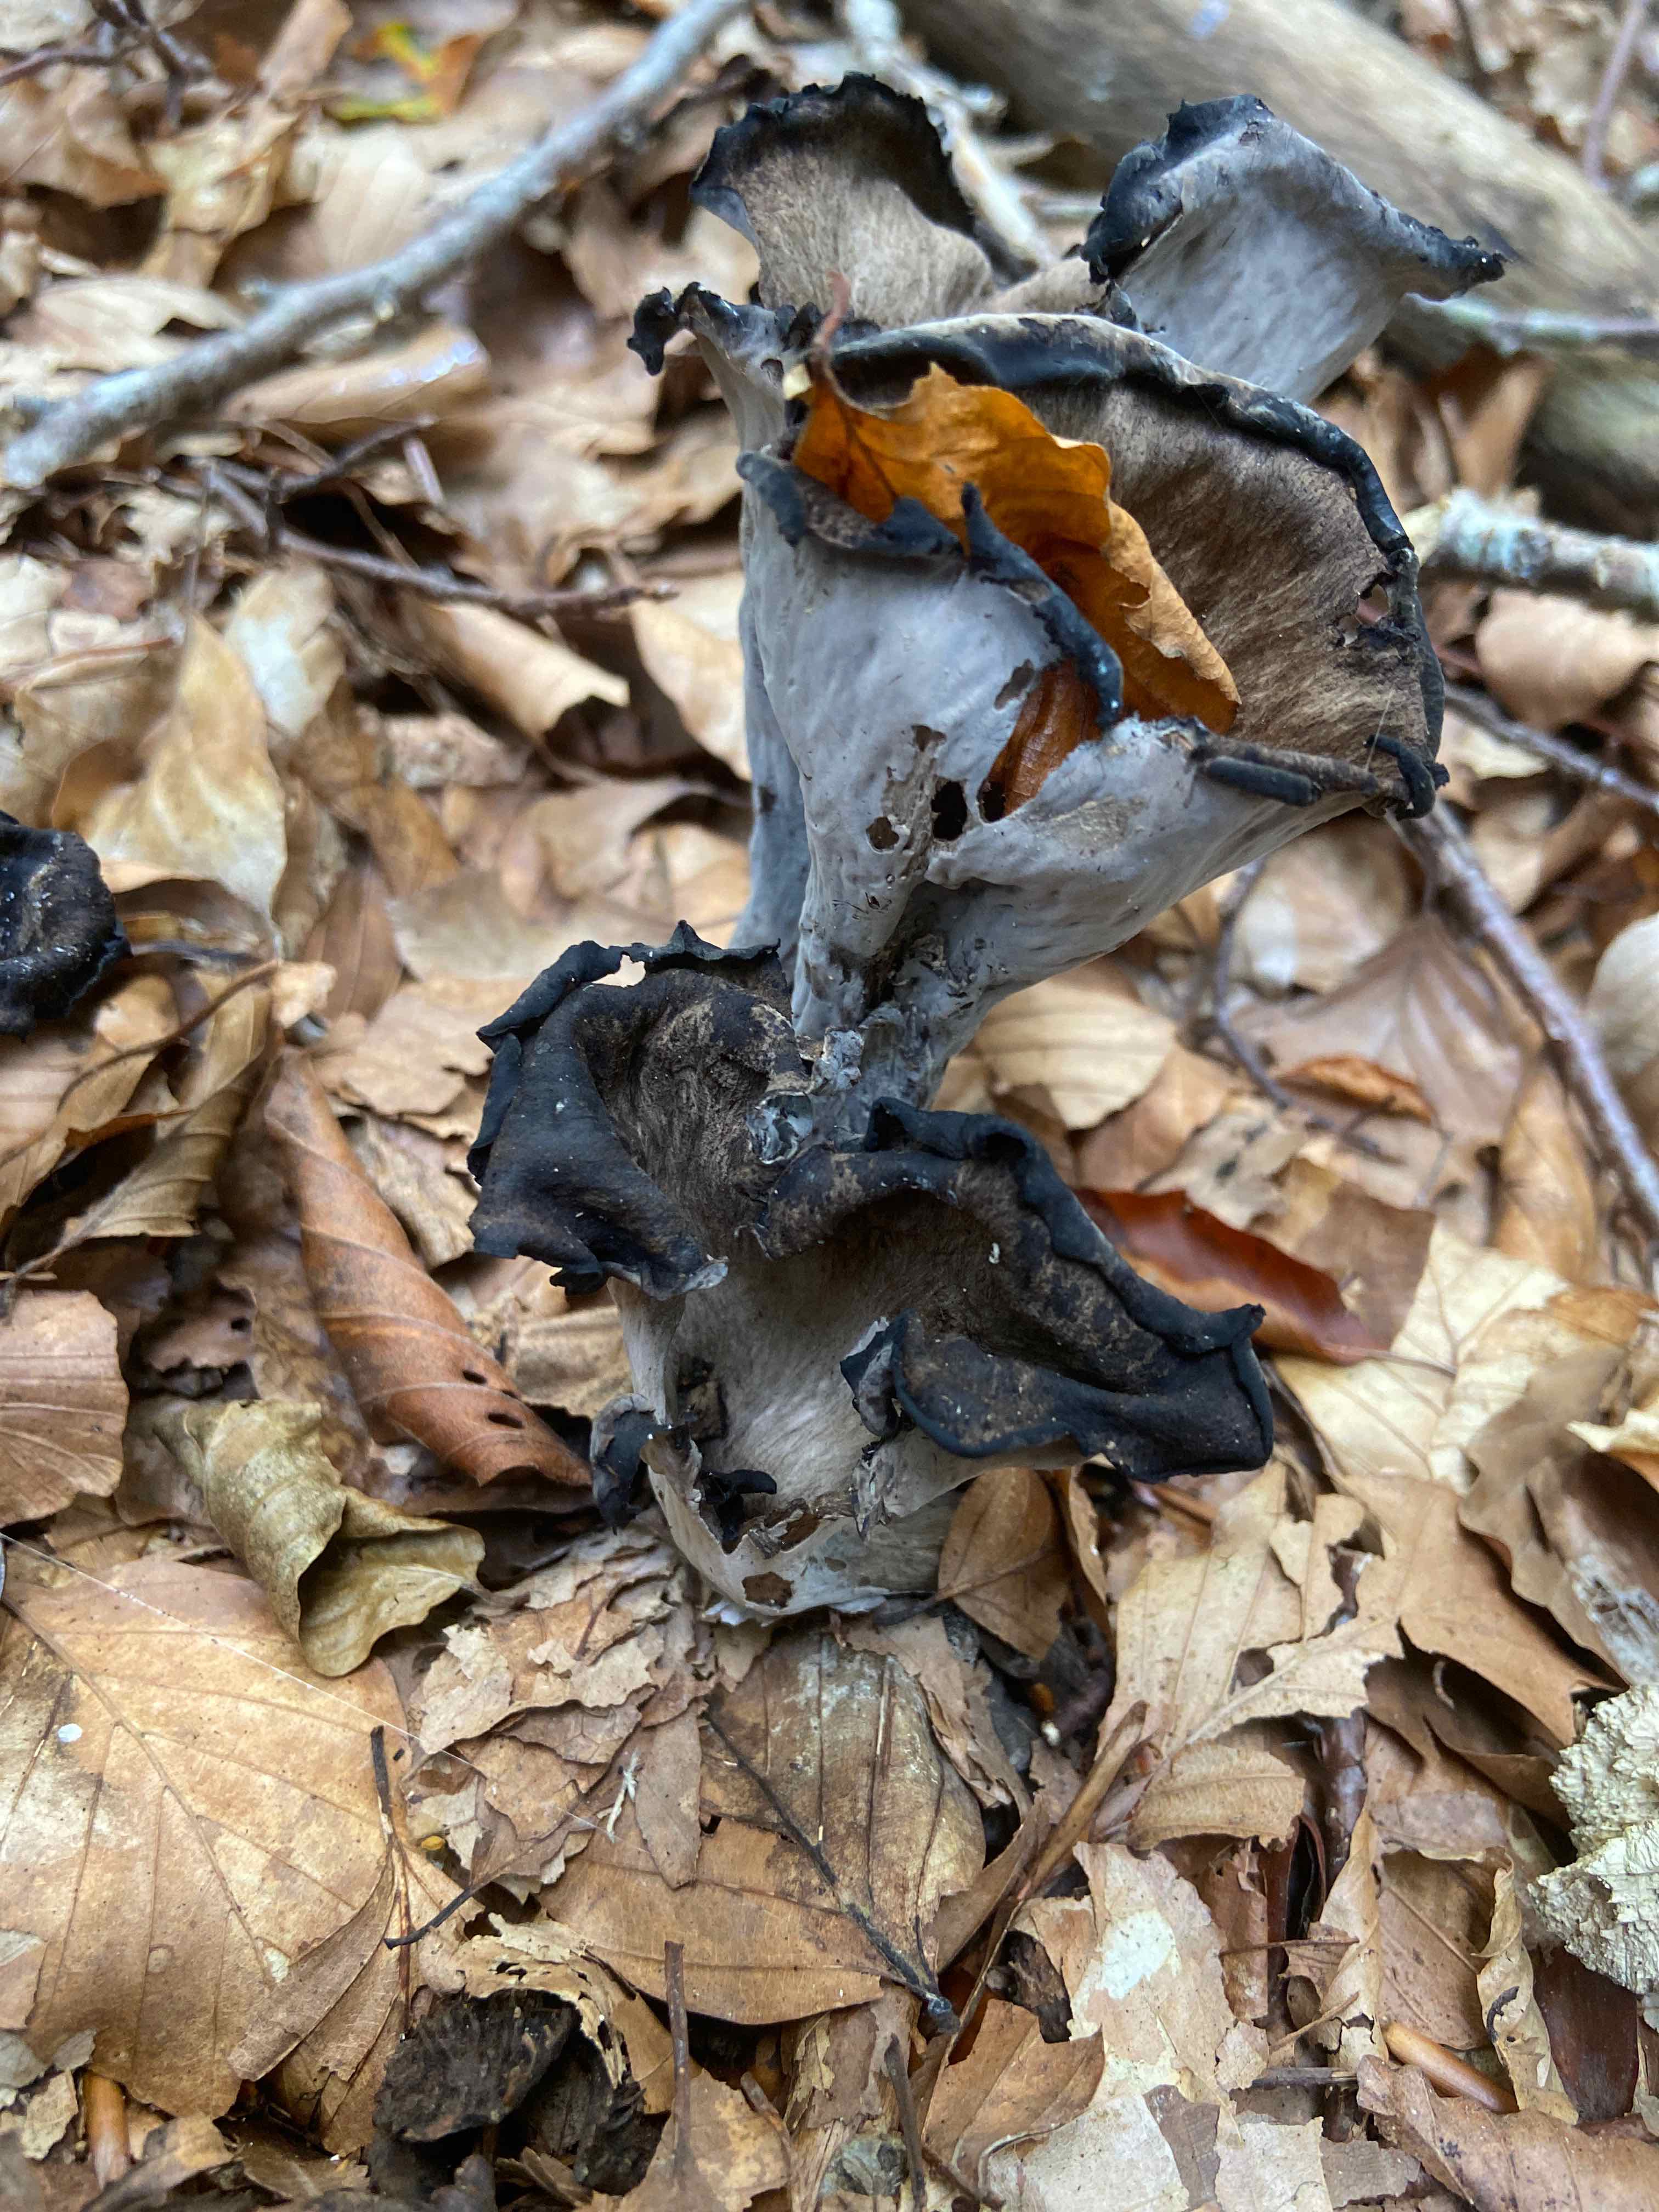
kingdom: Fungi
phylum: Basidiomycota
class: Agaricomycetes
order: Cantharellales
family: Hydnaceae
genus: Craterellus
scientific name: Craterellus cornucopioides
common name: trompetsvamp
